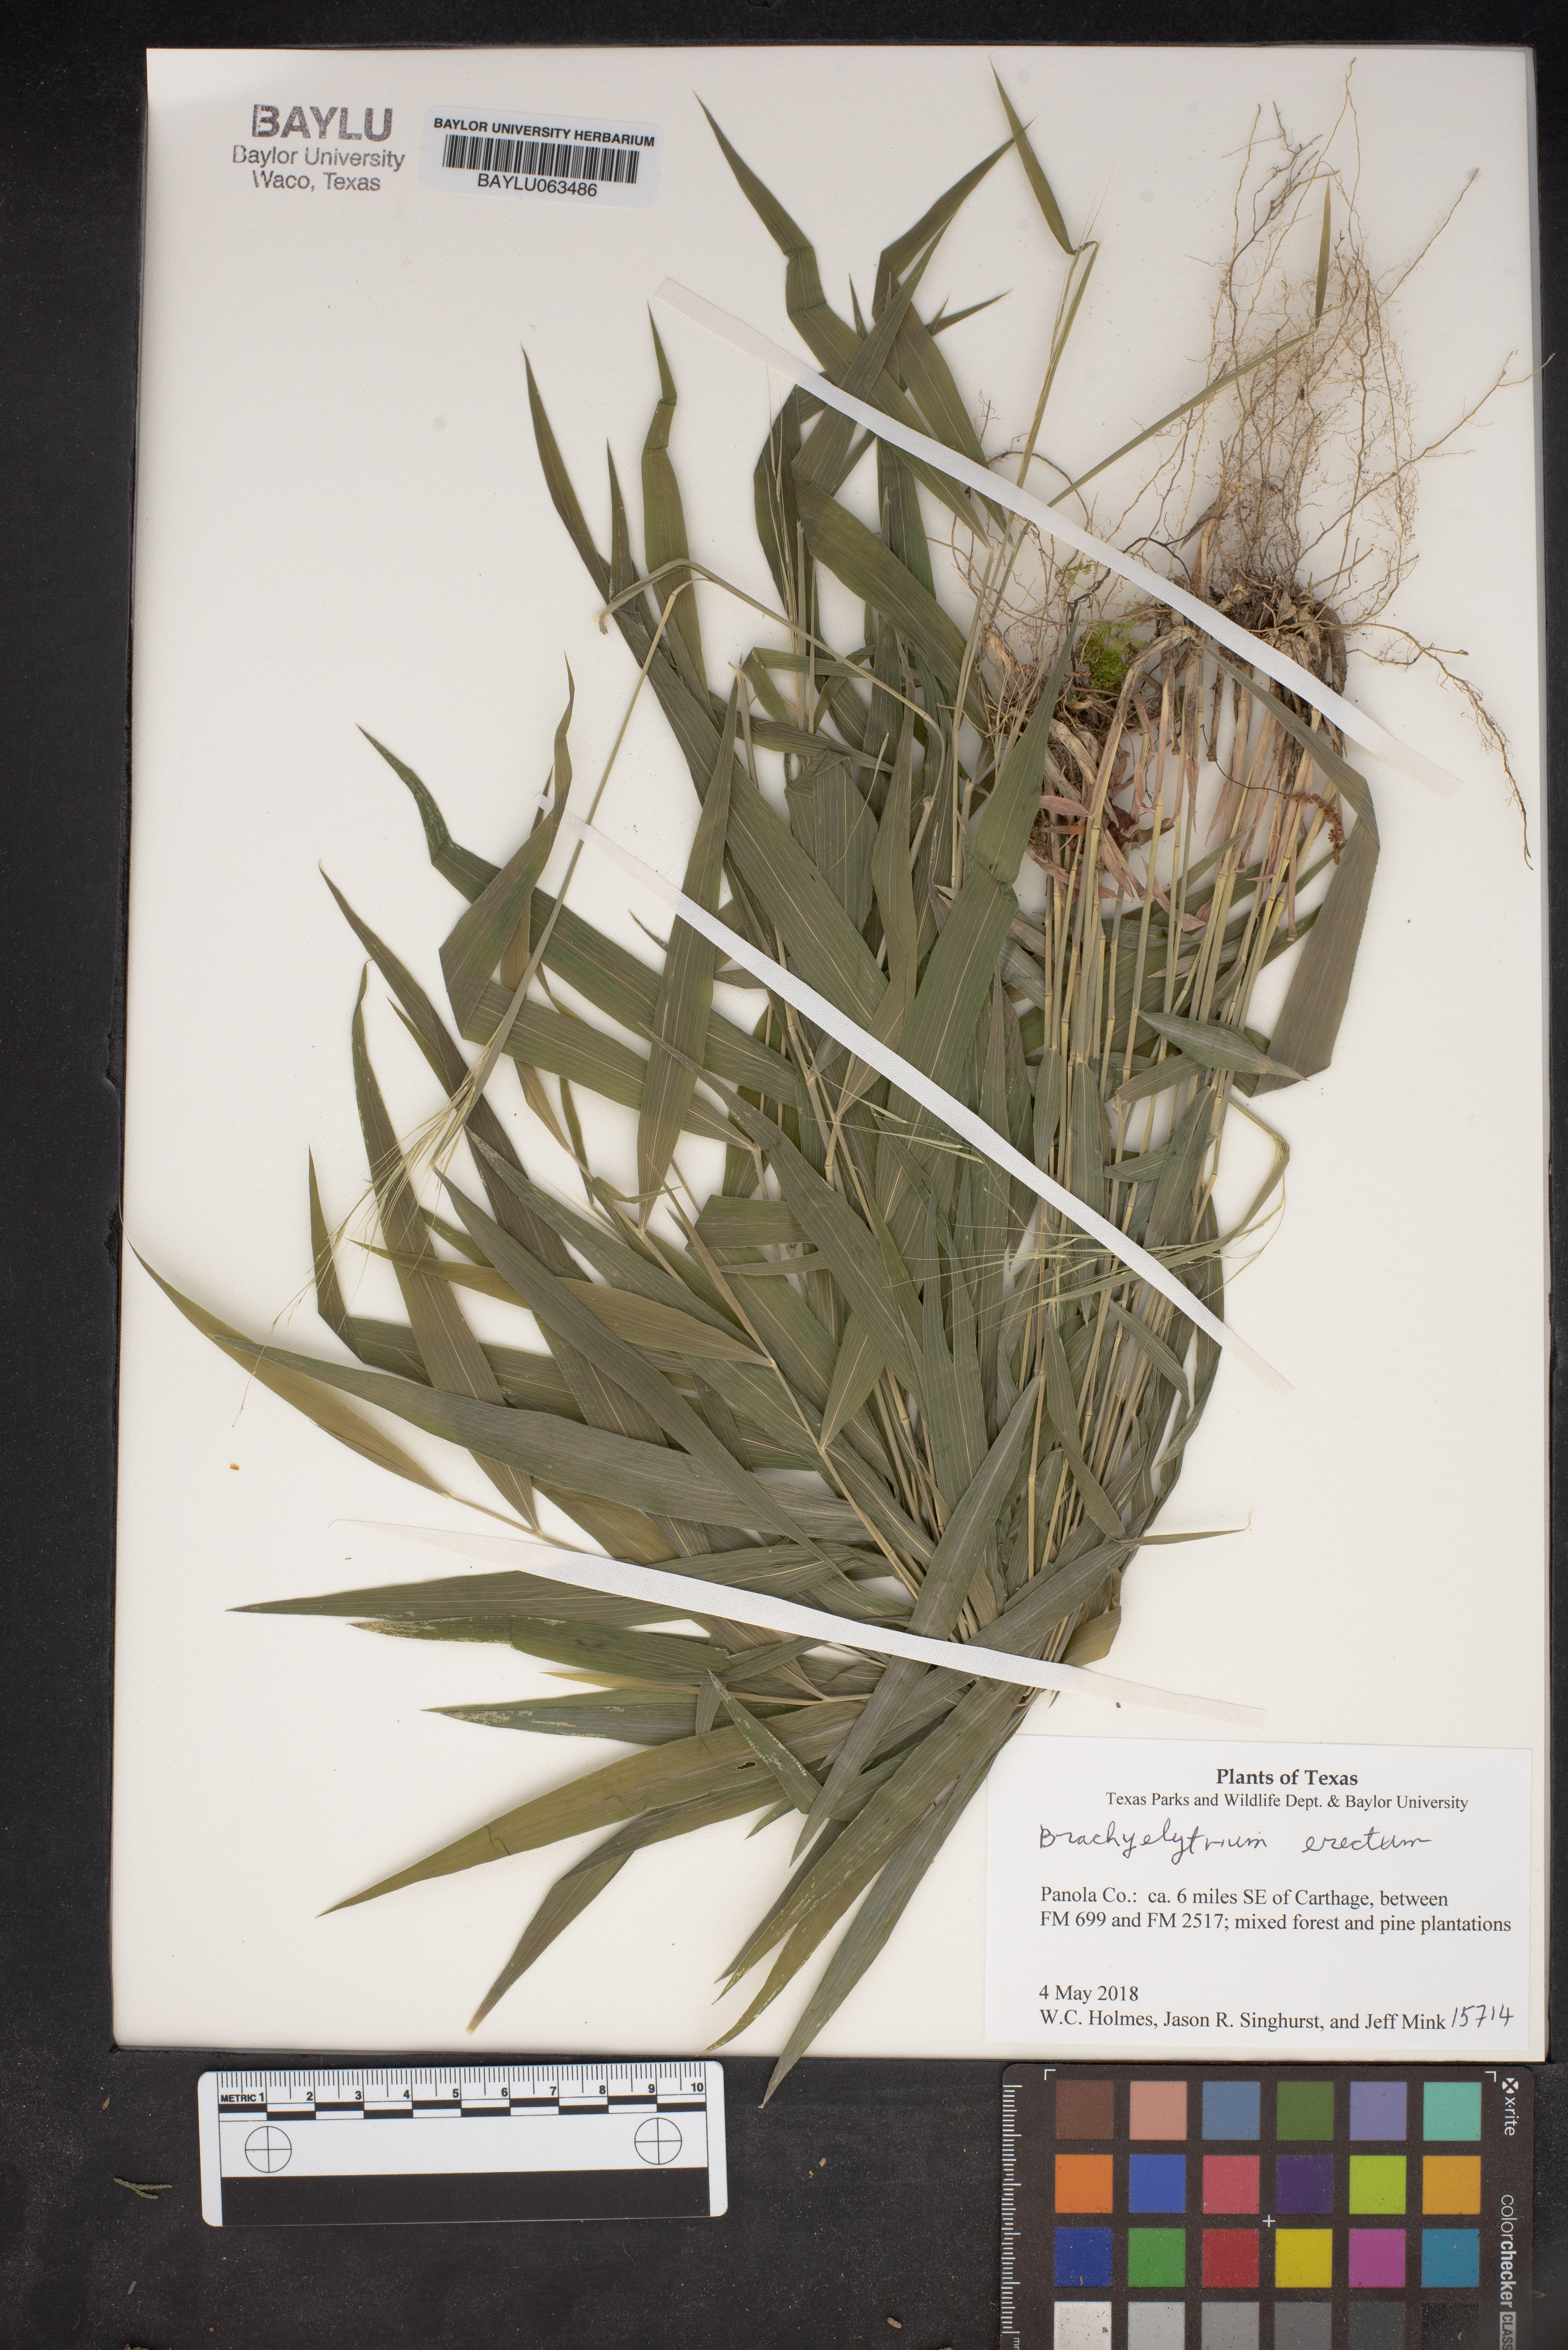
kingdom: Plantae
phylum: Tracheophyta
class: Liliopsida
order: Poales
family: Poaceae
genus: Brachyelytrum
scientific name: Brachyelytrum erectum
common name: Bearded shorthusk
